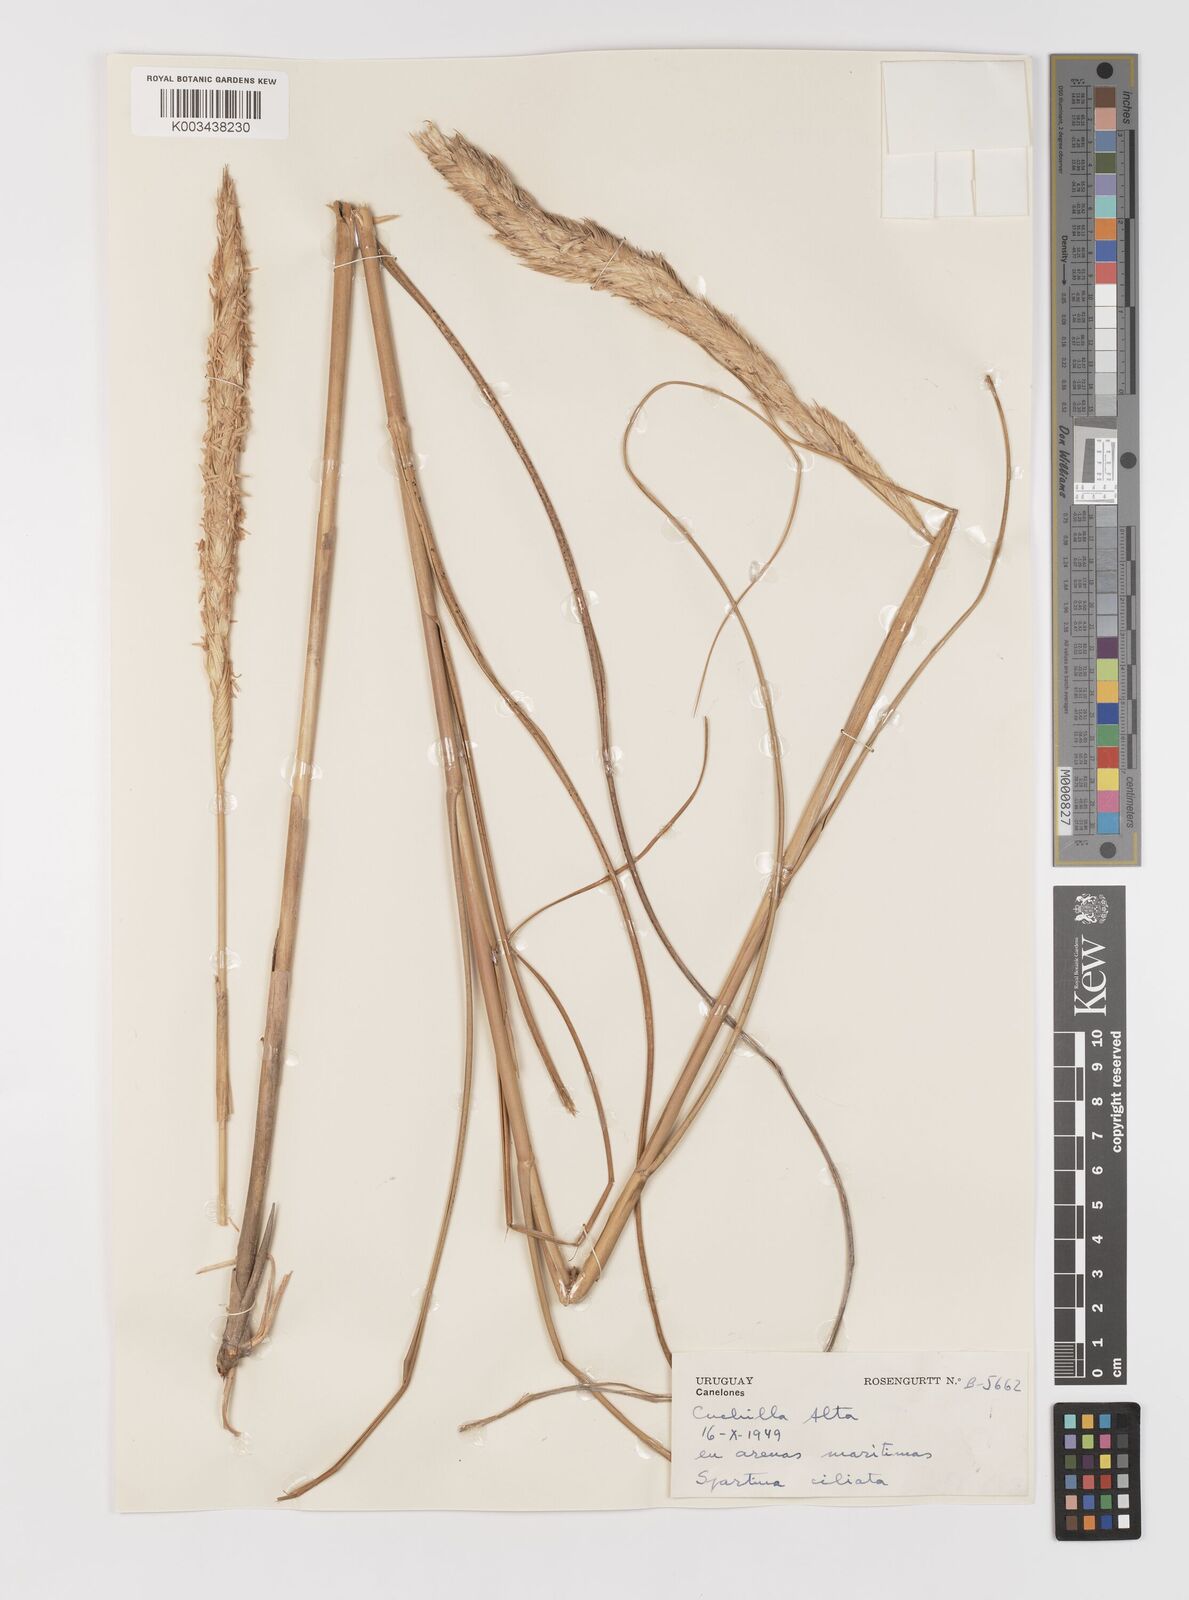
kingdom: Plantae
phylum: Tracheophyta
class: Liliopsida
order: Poales
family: Poaceae
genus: Sporobolus
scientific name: Sporobolus coarctatus
